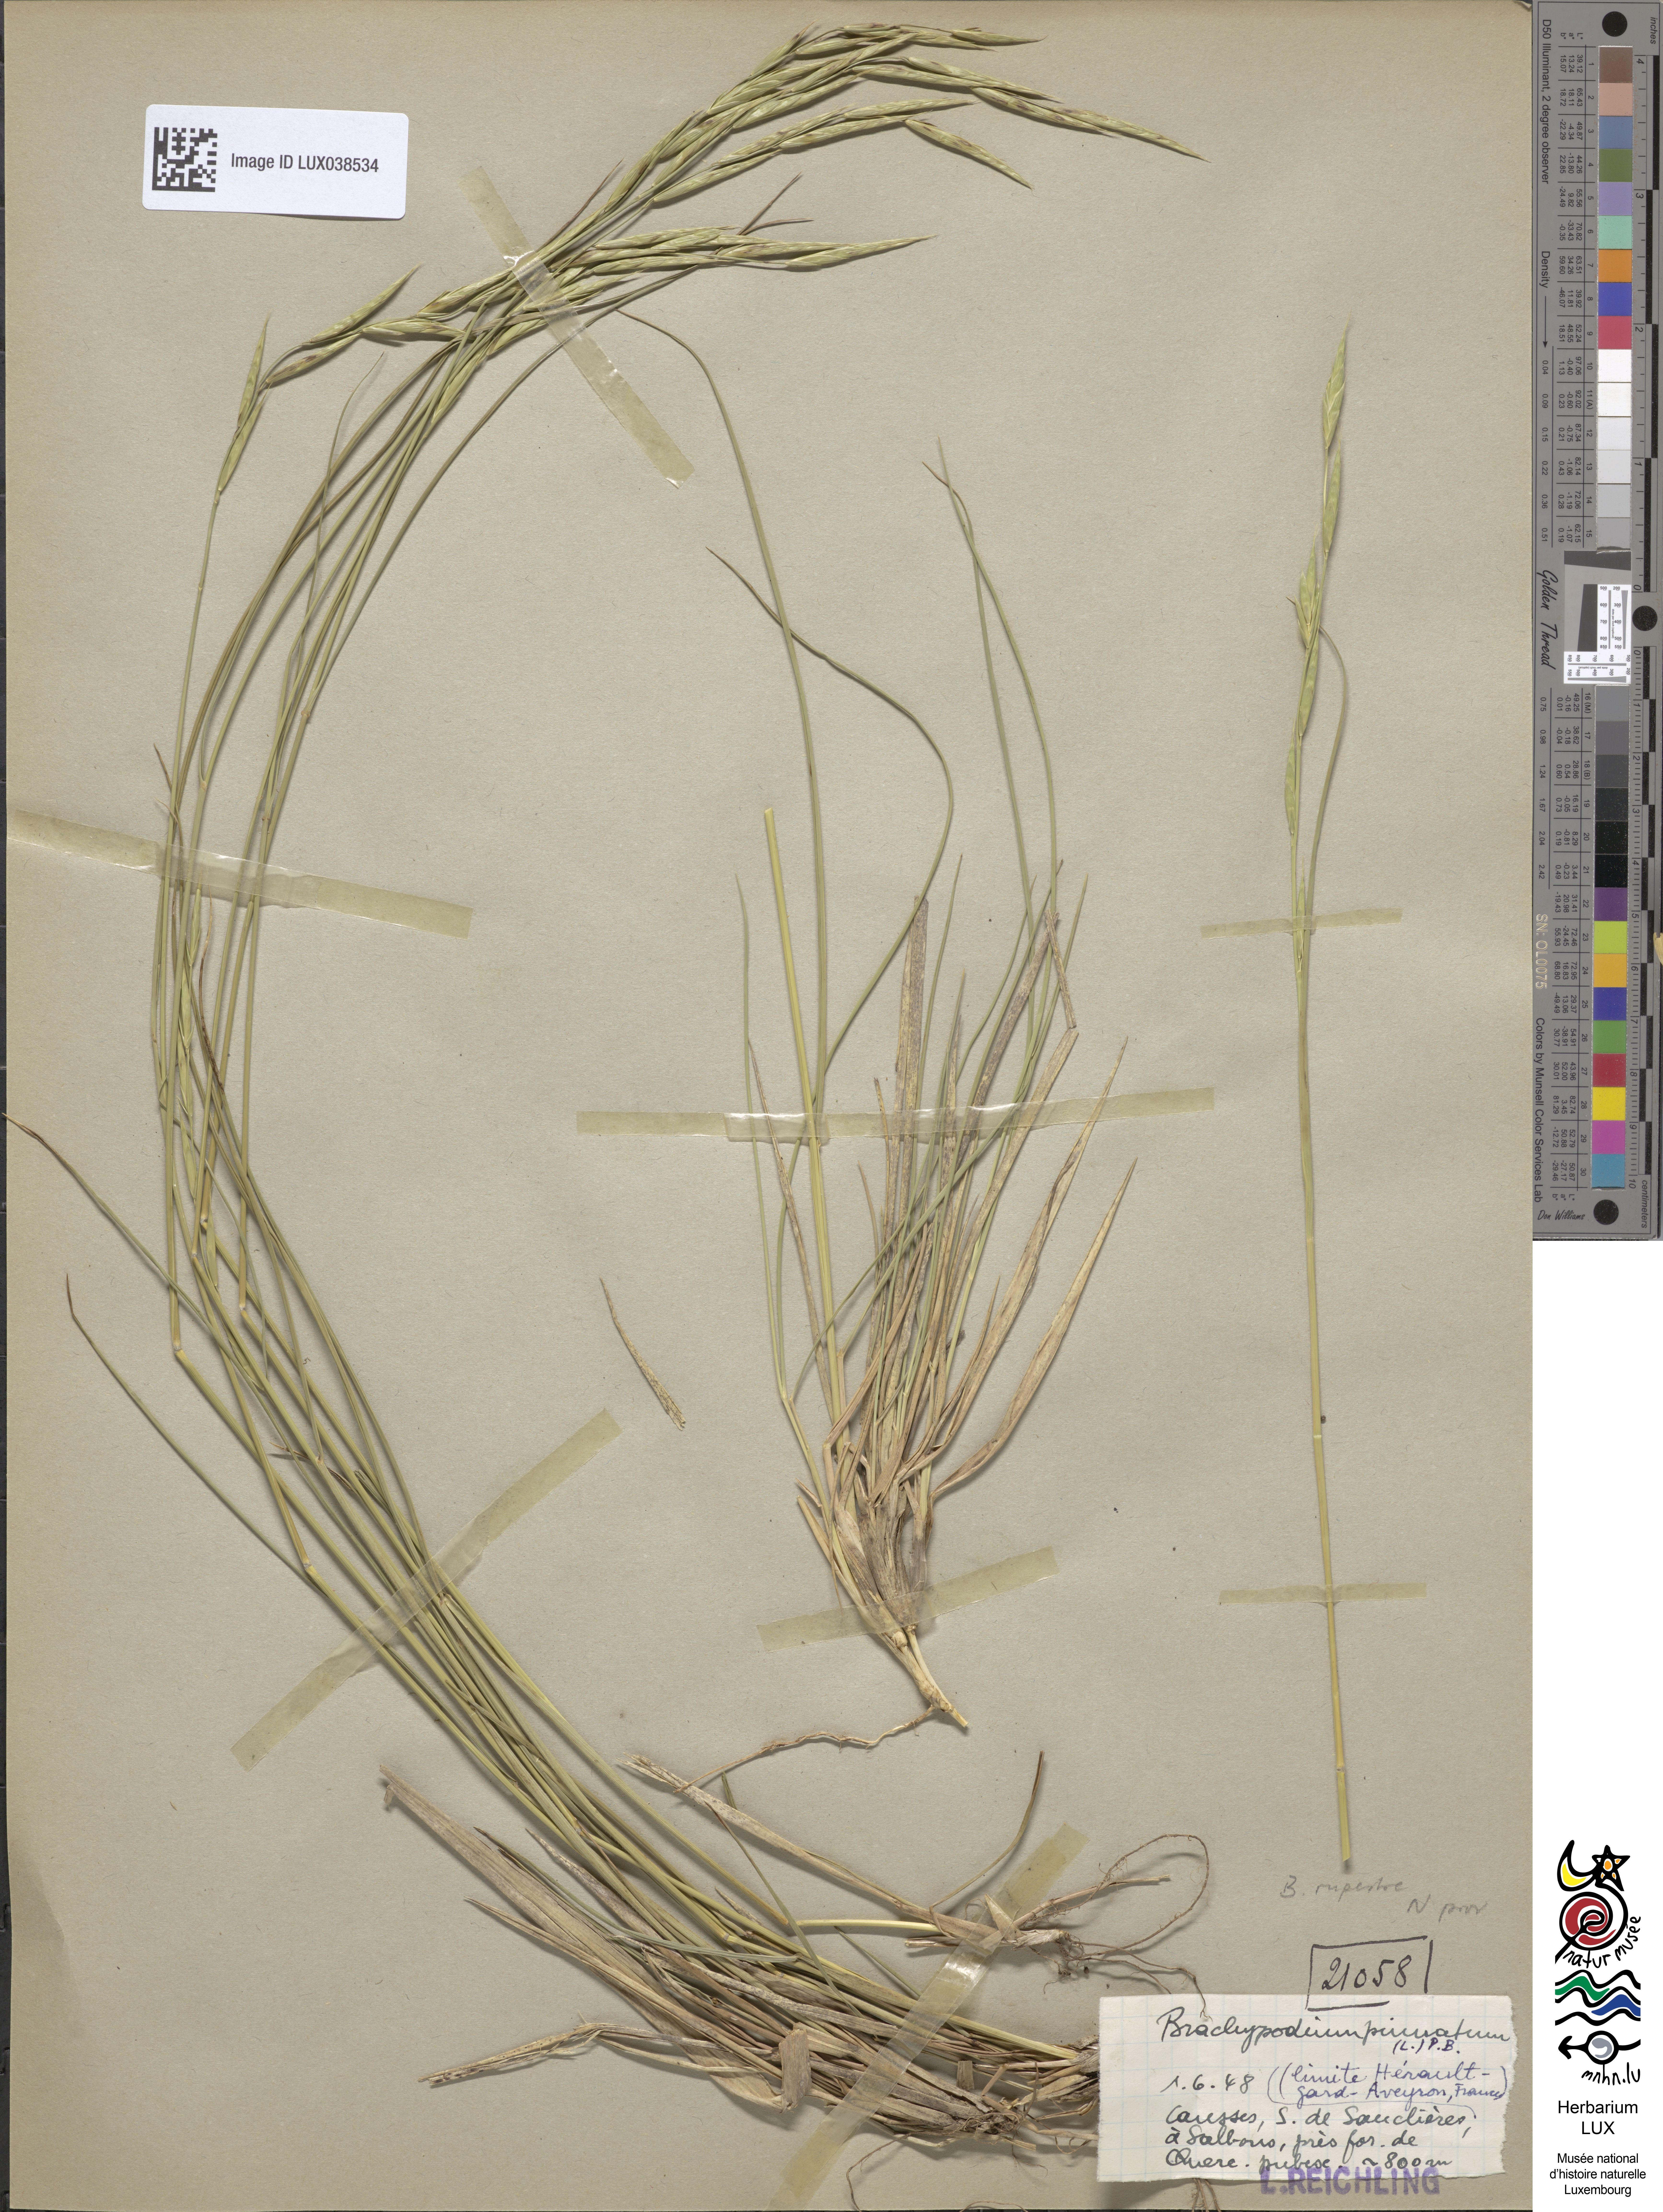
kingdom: Plantae
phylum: Tracheophyta
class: Liliopsida
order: Poales
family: Poaceae
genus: Brachypodium
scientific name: Brachypodium pinnatum
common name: Tor grass
